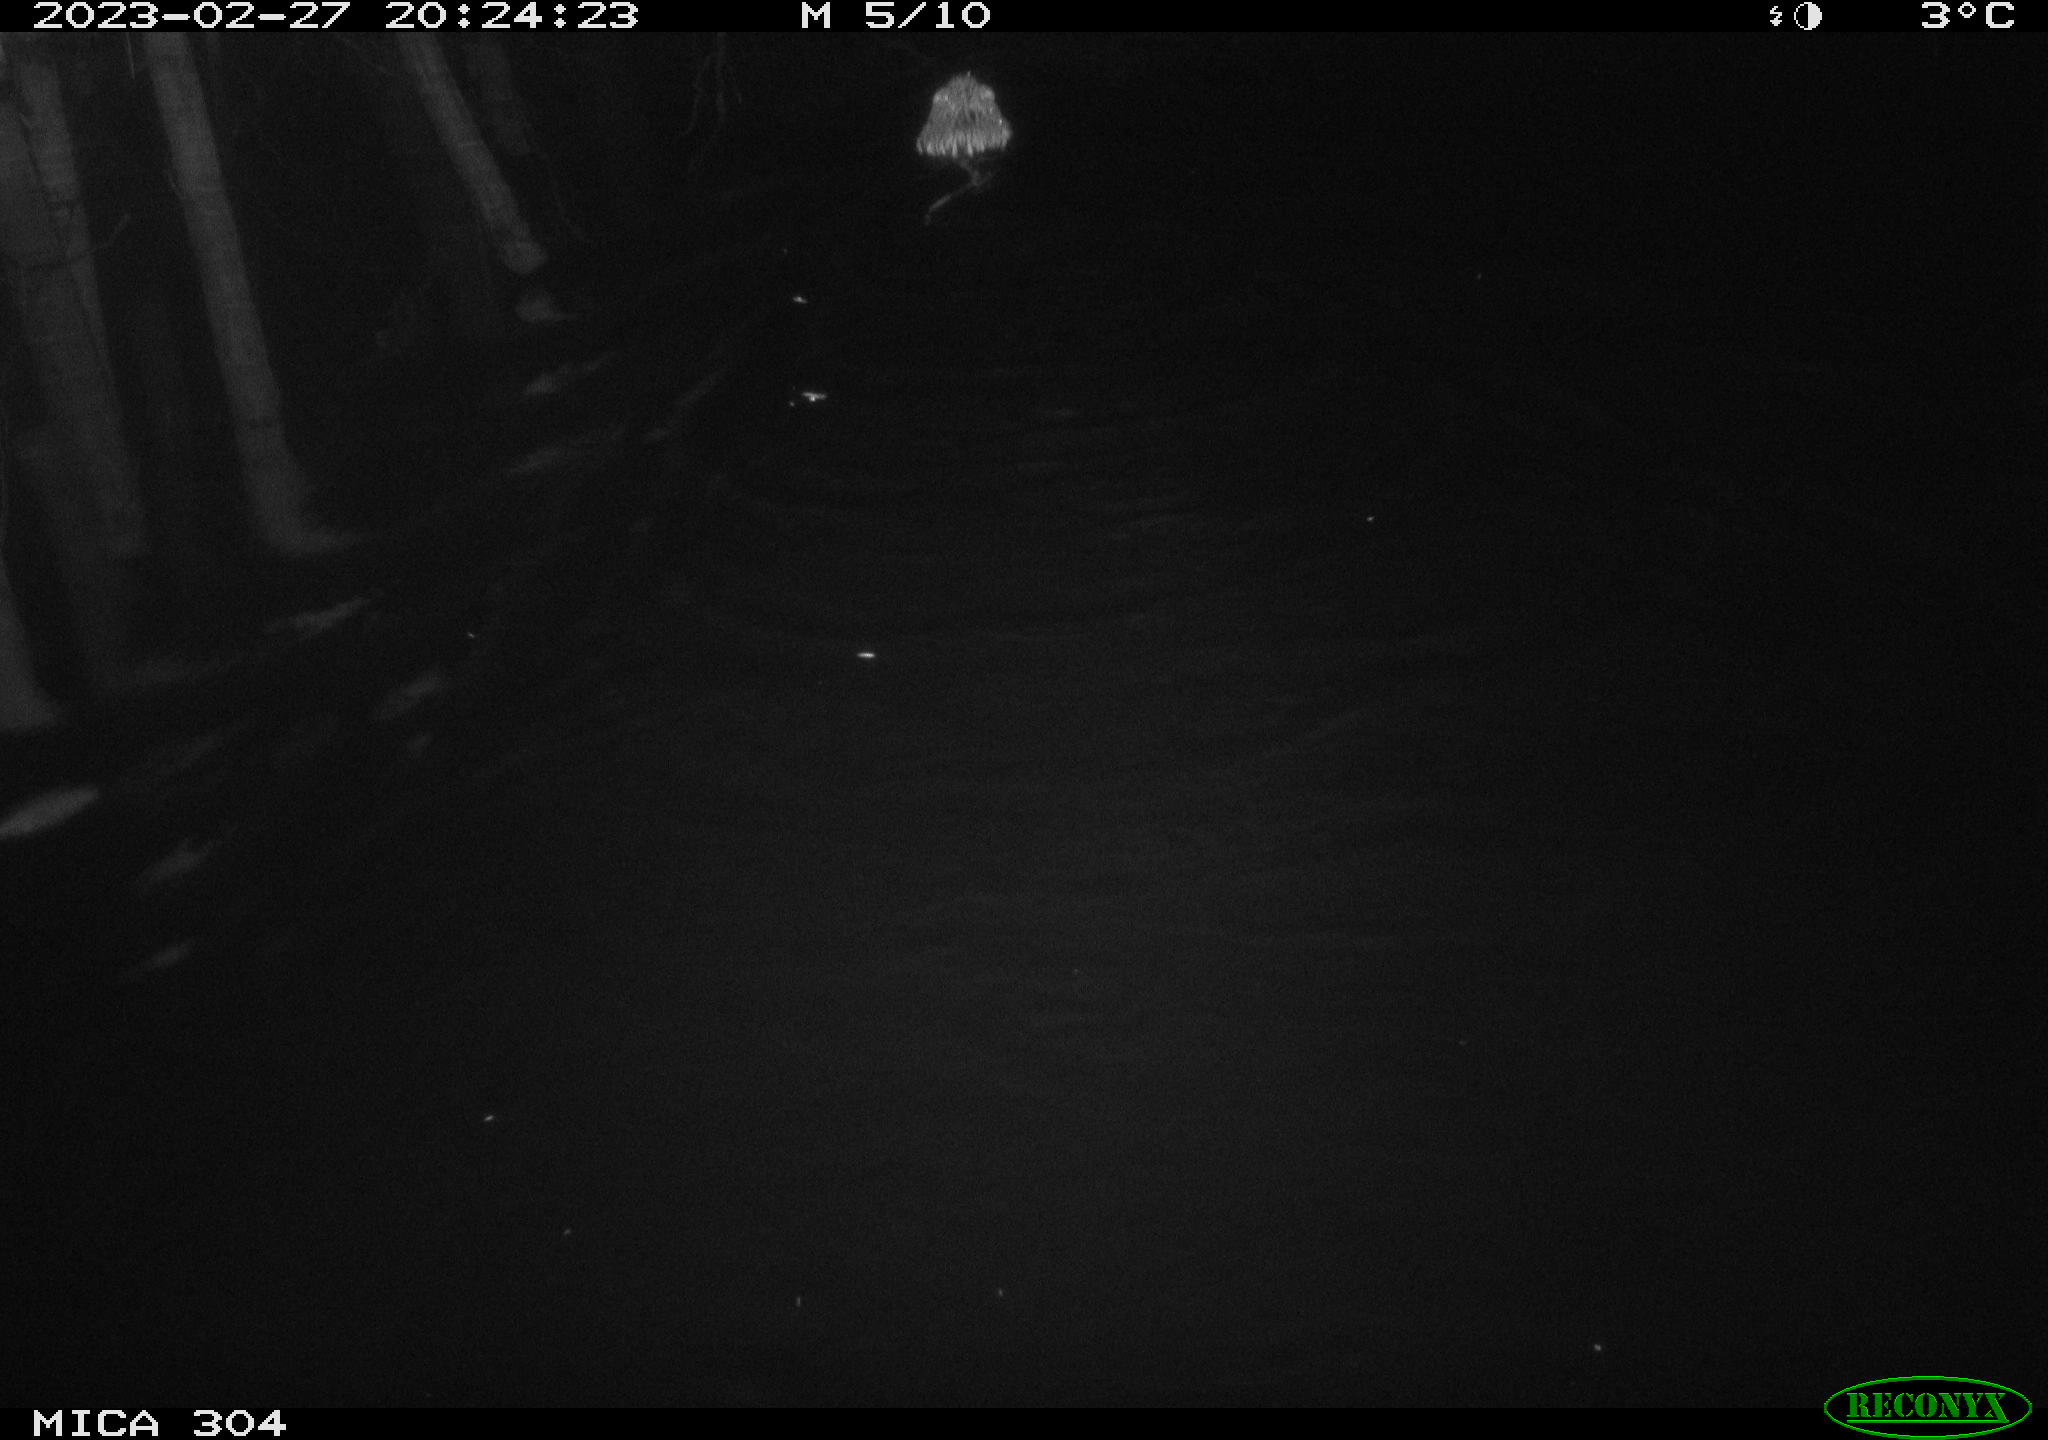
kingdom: Animalia
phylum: Chordata
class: Mammalia
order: Rodentia
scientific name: Rodentia
